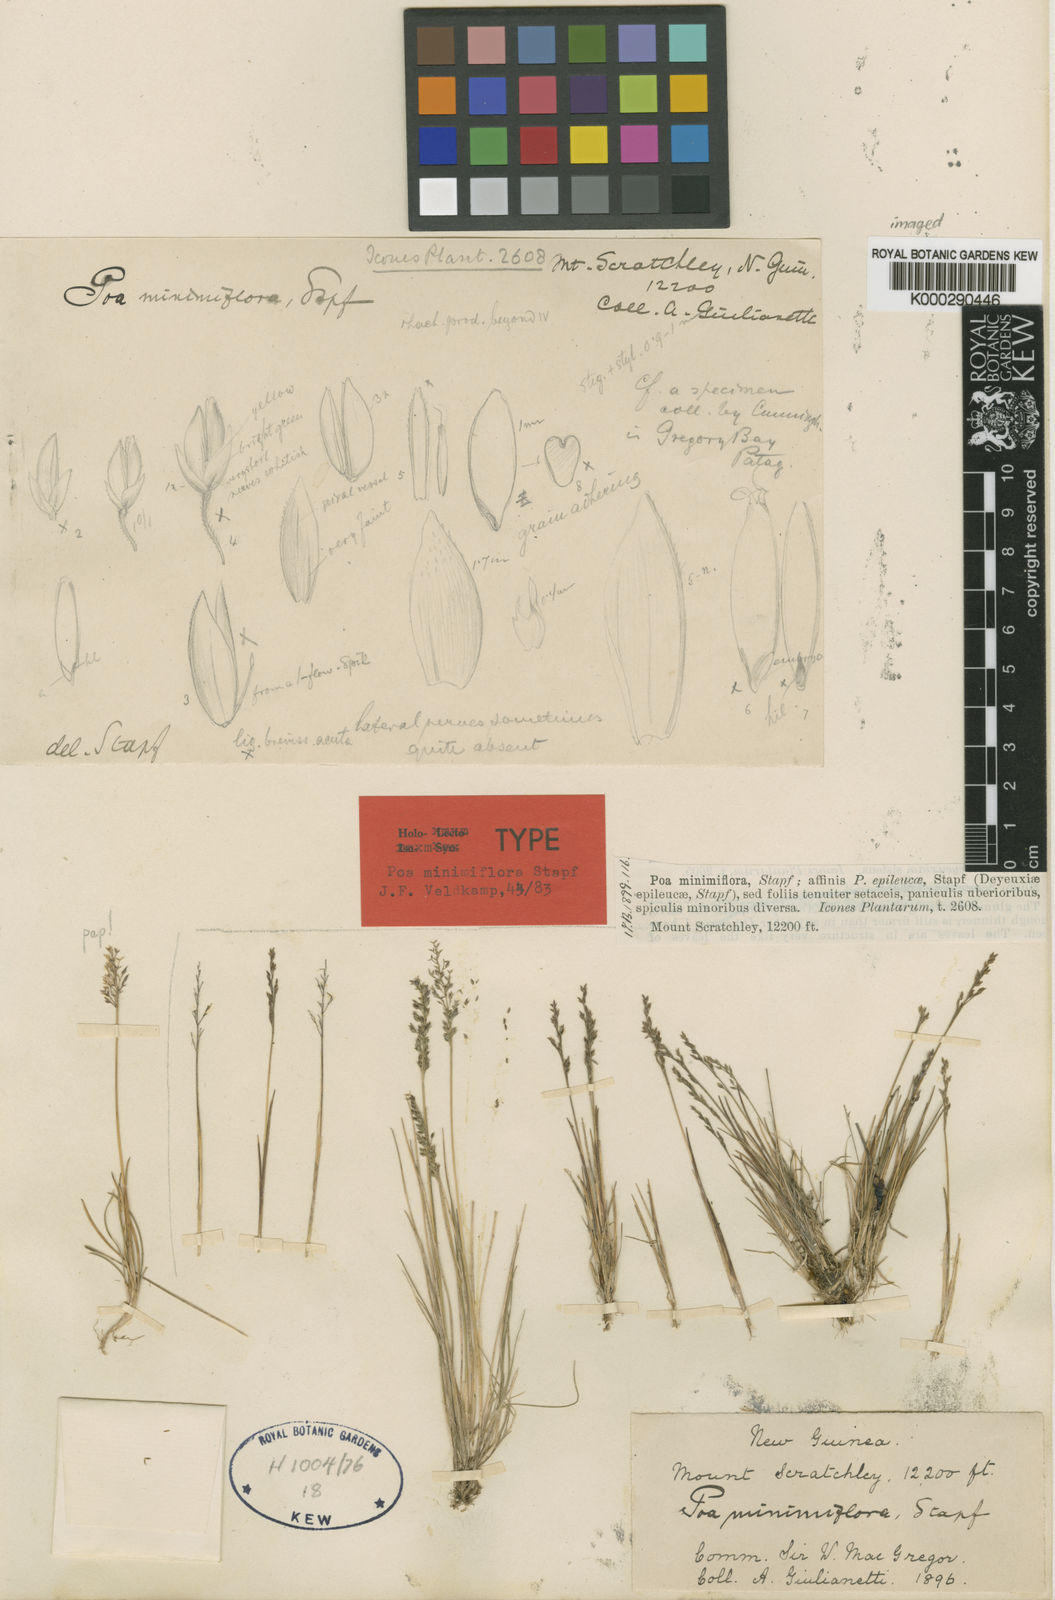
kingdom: Plantae
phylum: Tracheophyta
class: Liliopsida
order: Poales
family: Poaceae
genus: Poa
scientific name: Poa minimiflora
